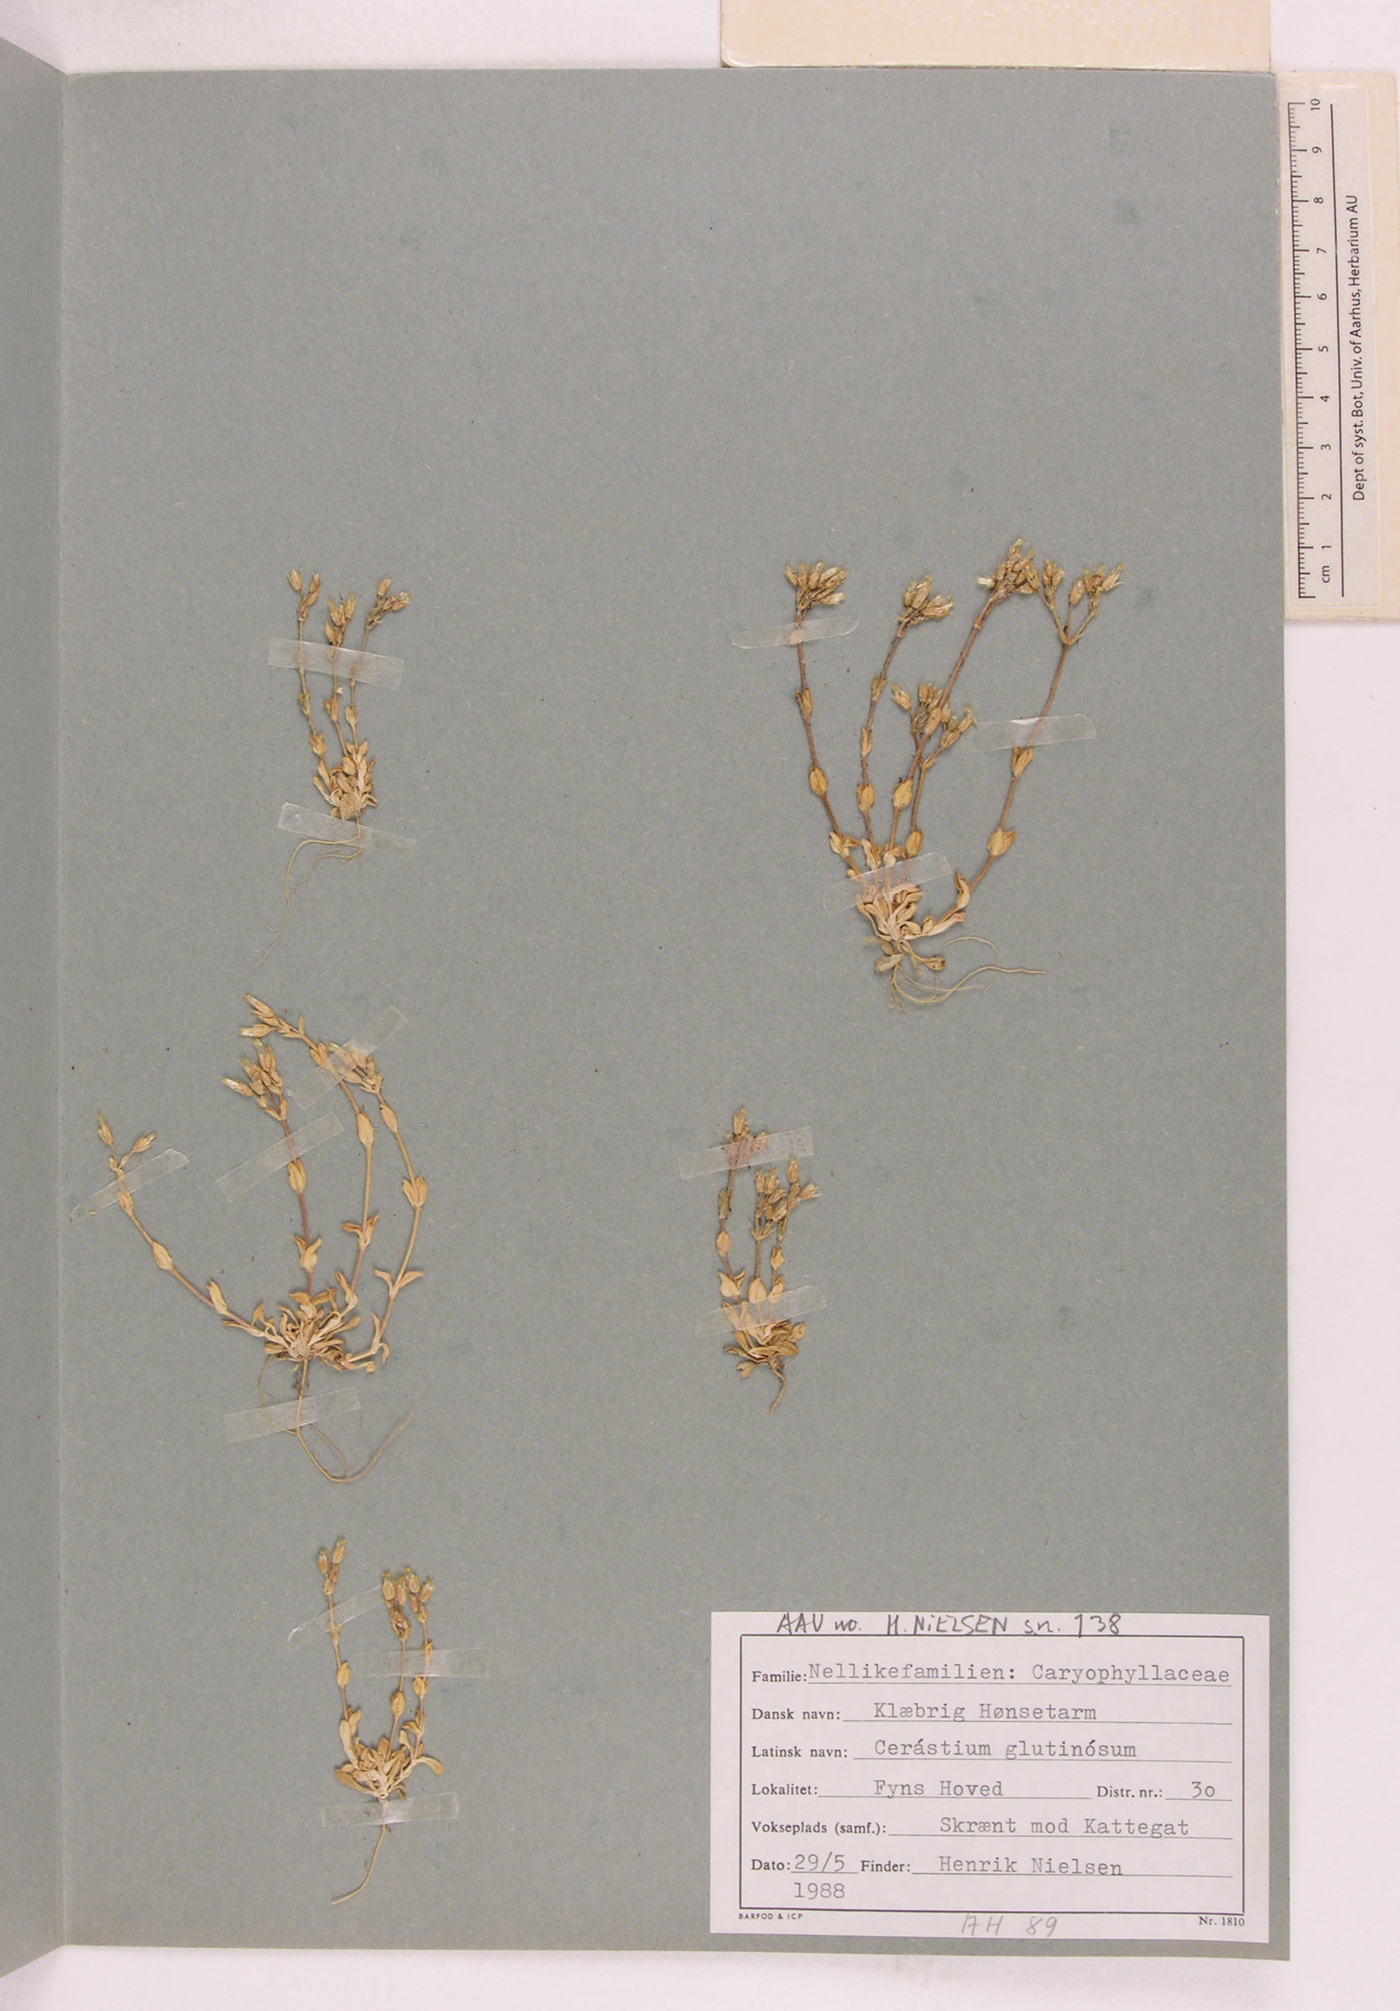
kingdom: Plantae
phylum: Tracheophyta
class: Magnoliopsida
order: Caryophyllales
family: Caryophyllaceae
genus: Cerastium
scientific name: Cerastium glutinosum
